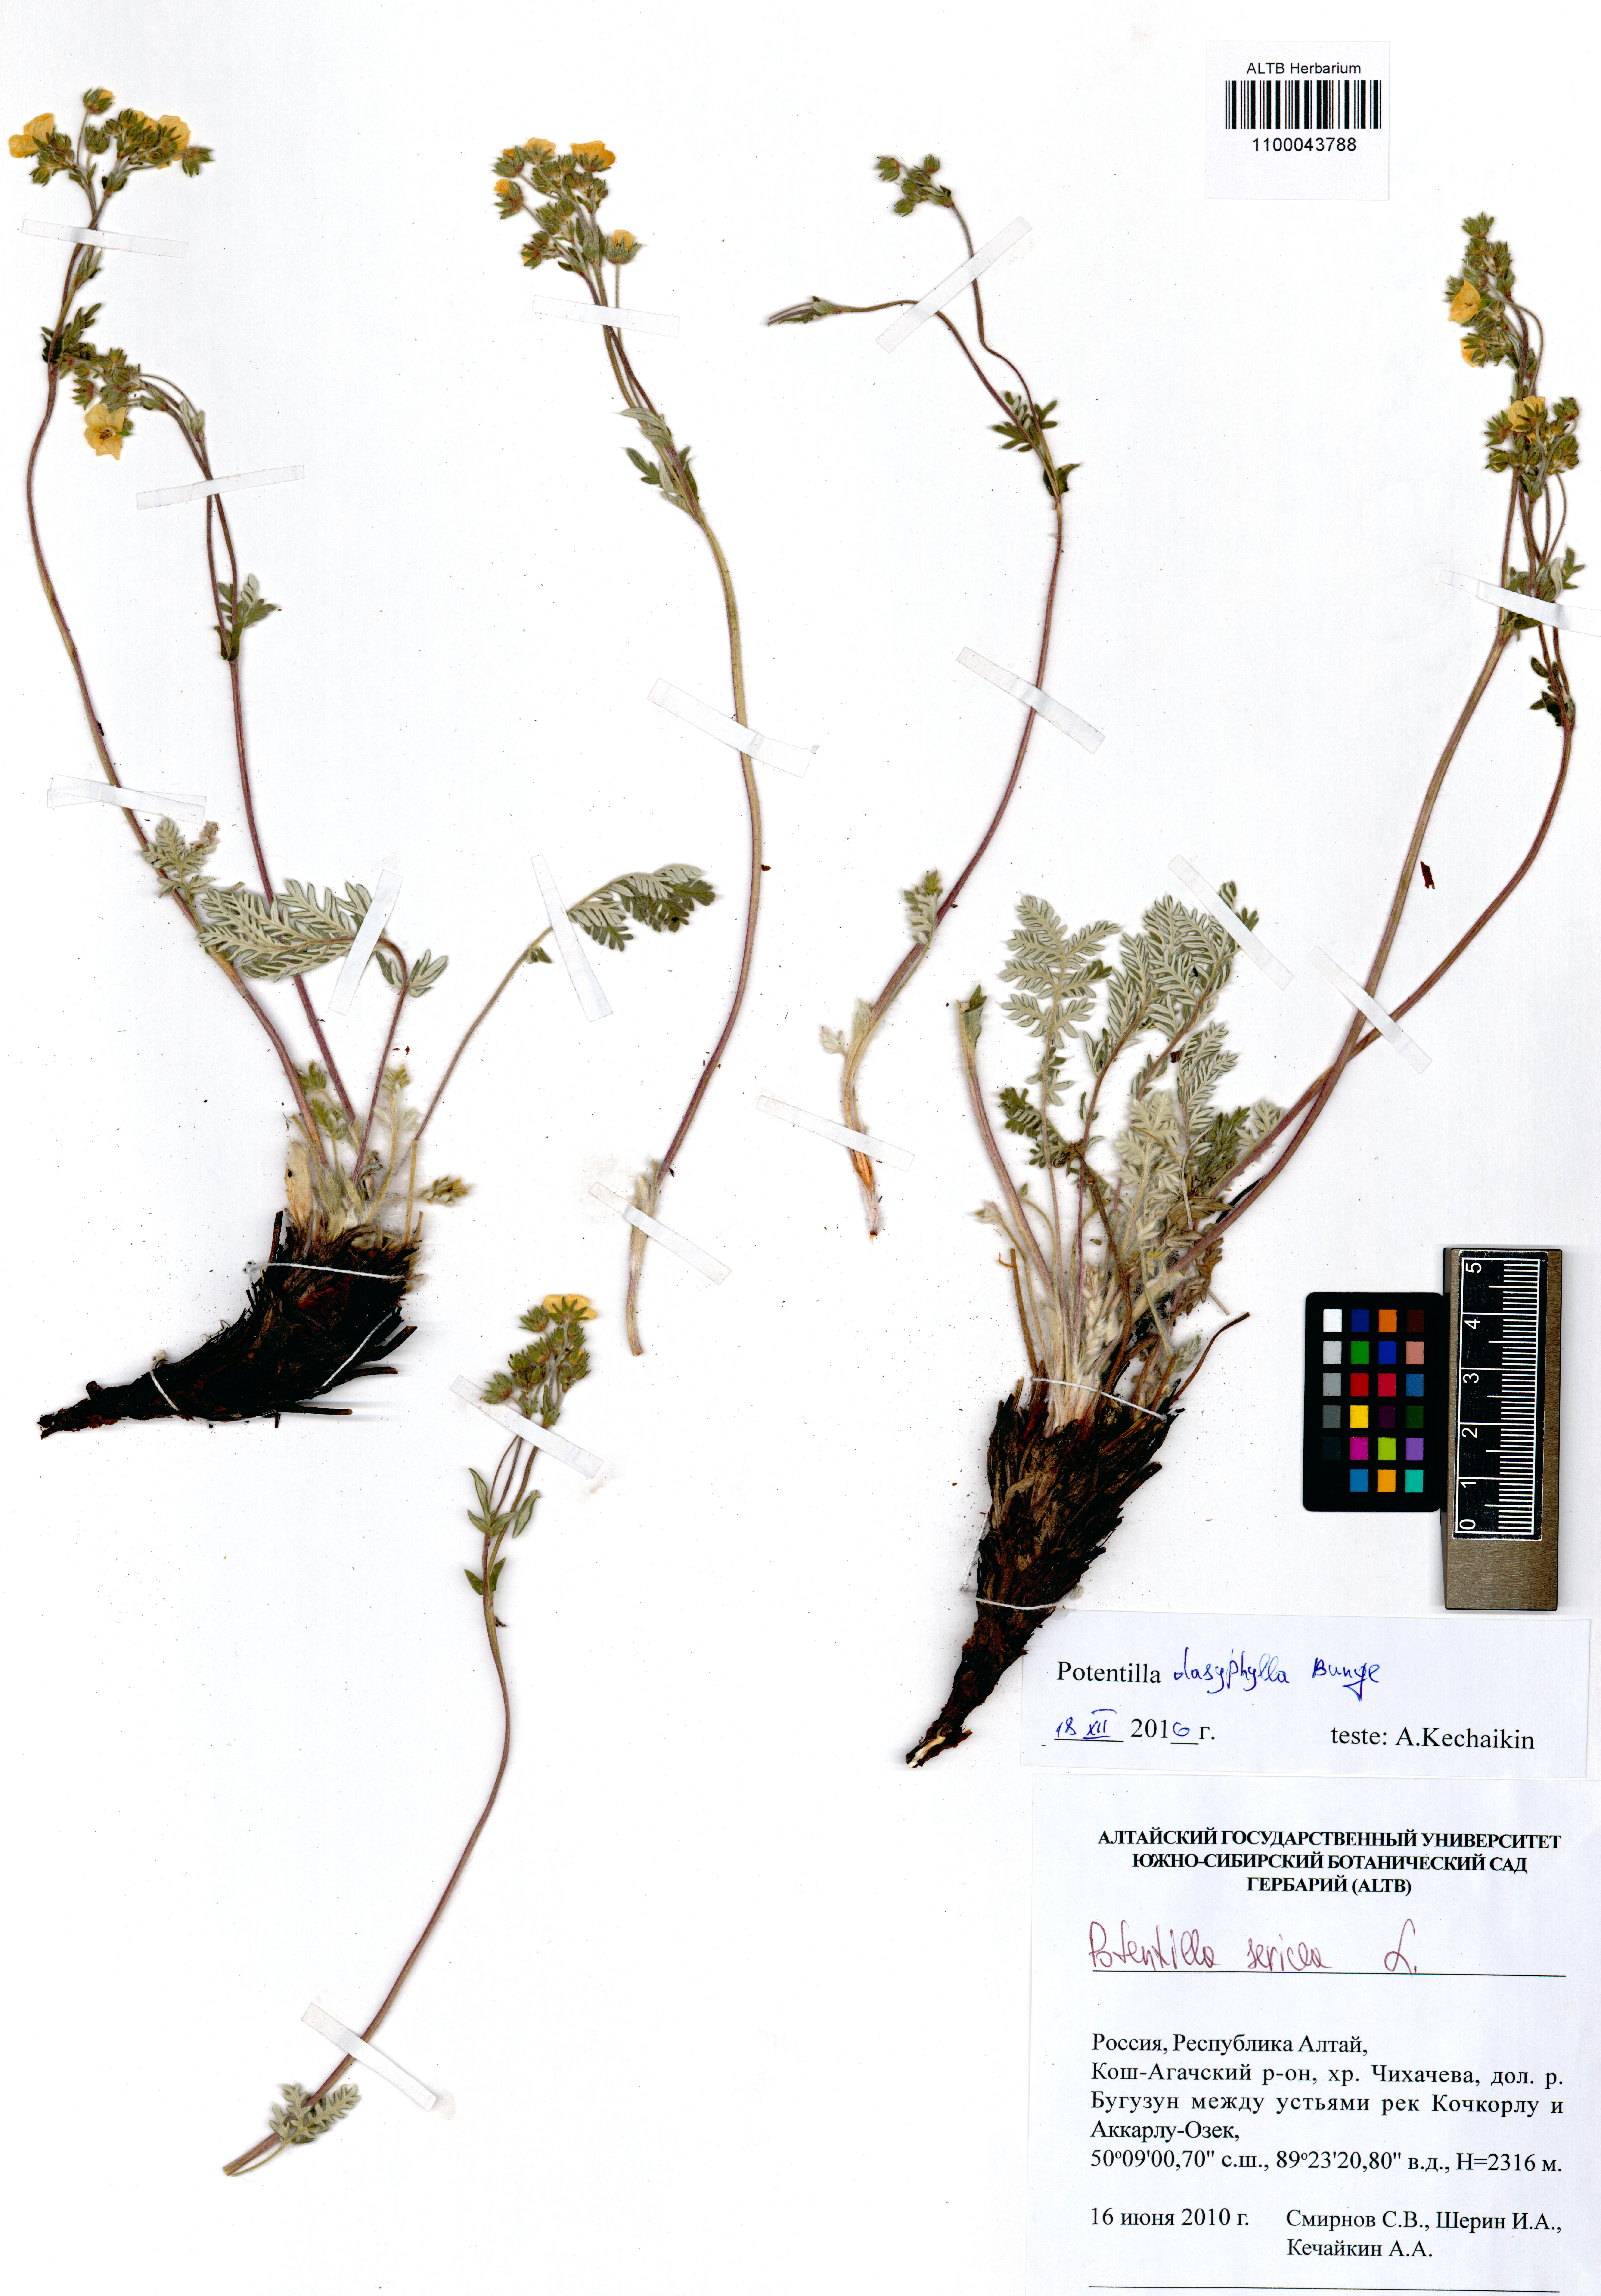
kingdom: Plantae
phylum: Tracheophyta
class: Magnoliopsida
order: Rosales
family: Rosaceae
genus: Potentilla
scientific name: Potentilla sericea
